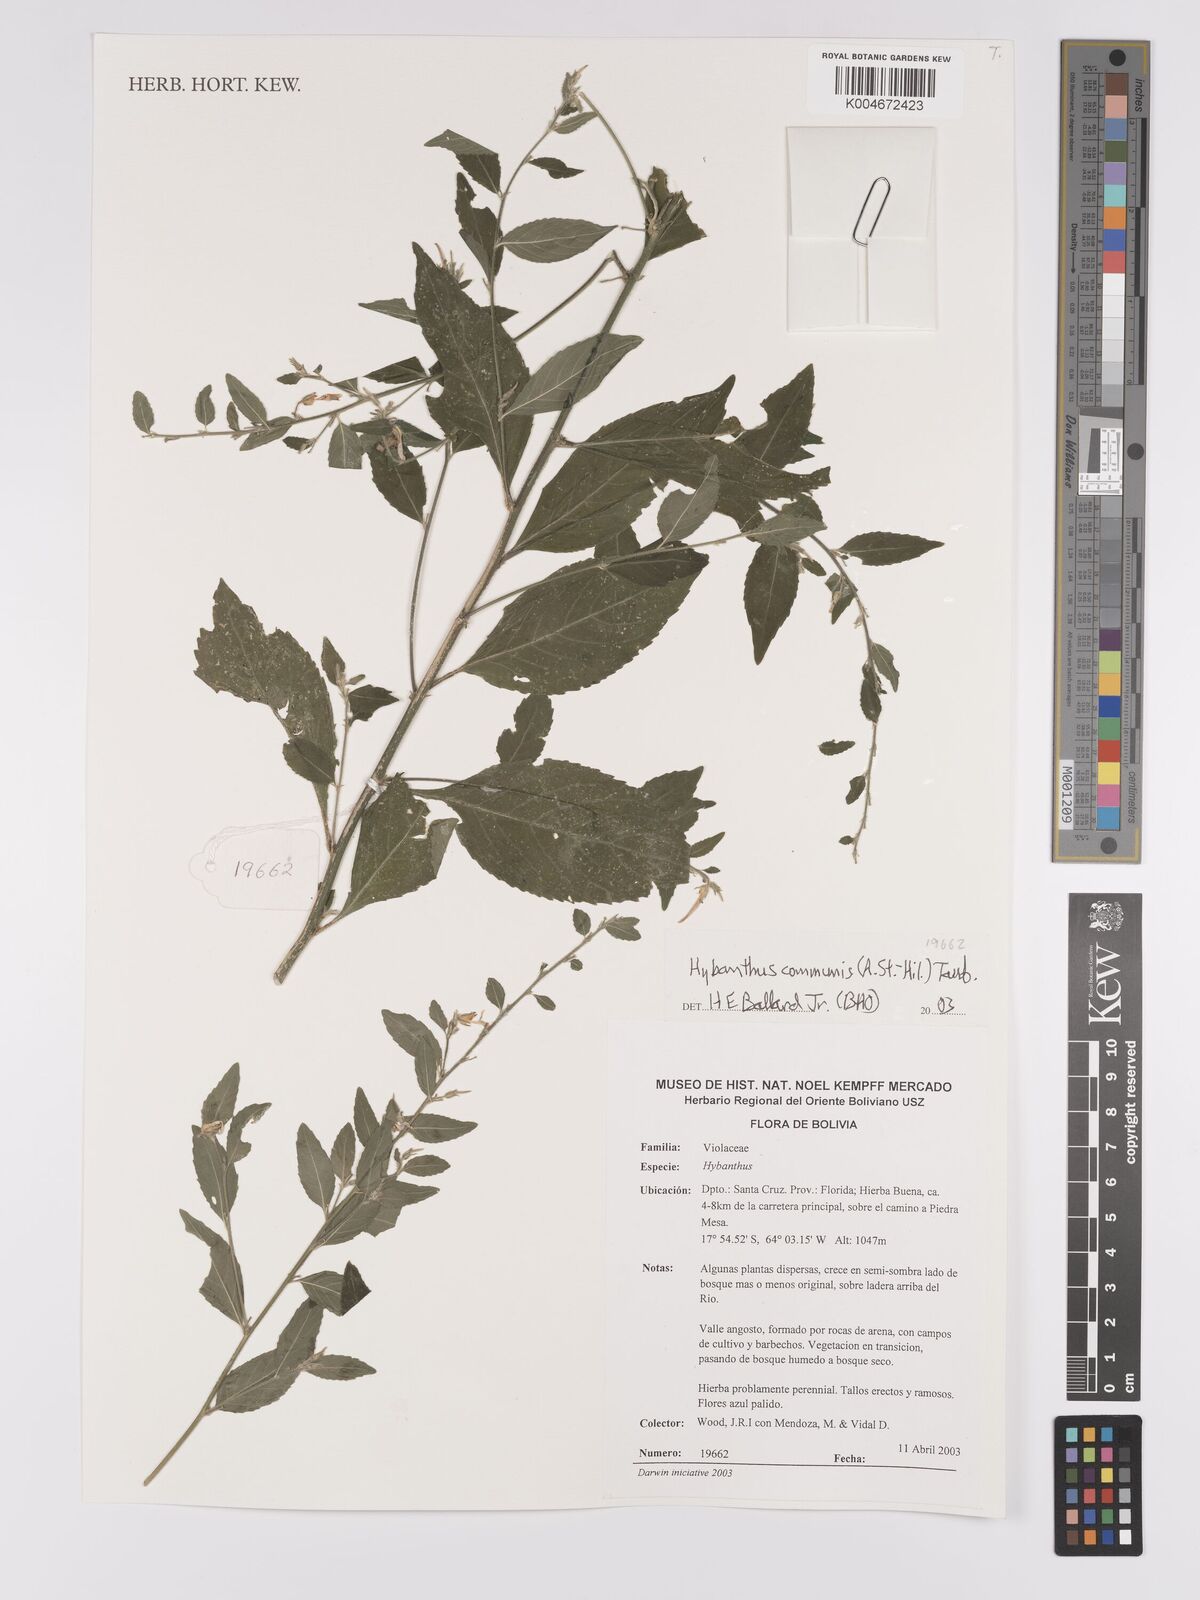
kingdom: Plantae
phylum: Tracheophyta
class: Magnoliopsida
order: Malpighiales
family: Violaceae
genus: Pombalia
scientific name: Pombalia communis
